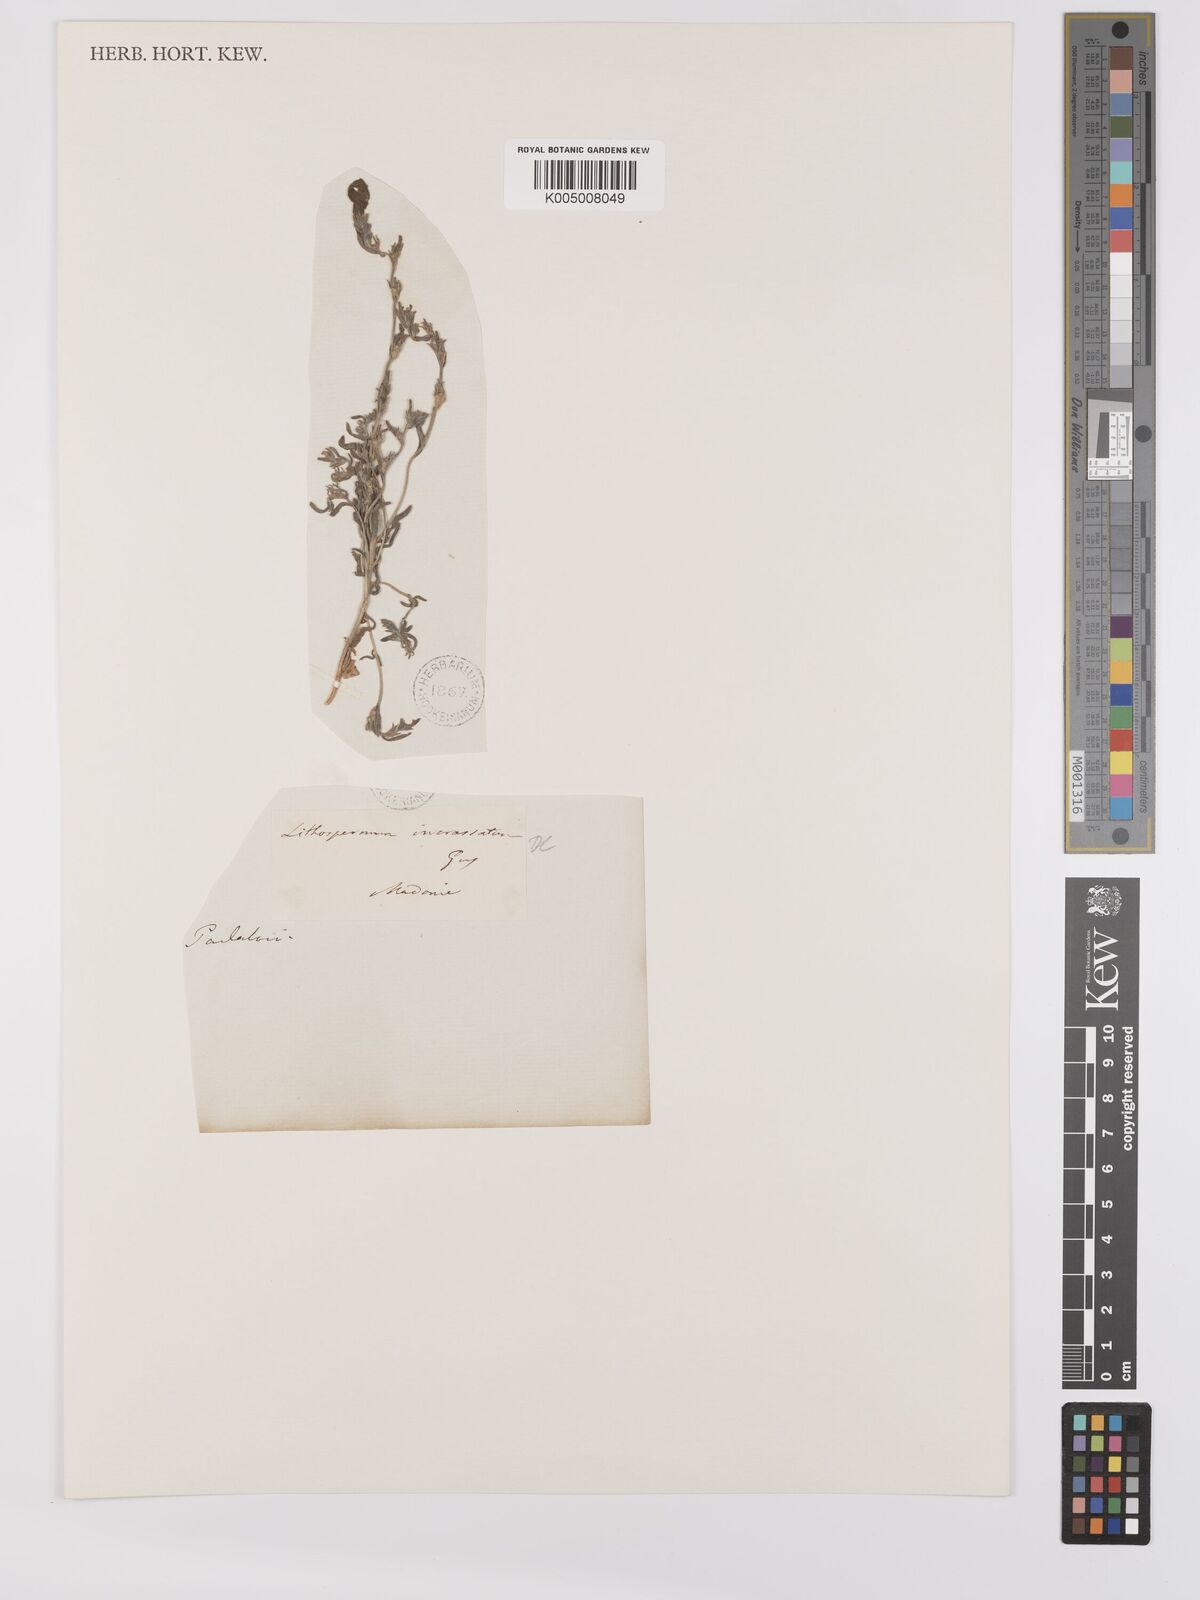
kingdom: Plantae
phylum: Tracheophyta
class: Magnoliopsida
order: Boraginales
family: Boraginaceae
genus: Buglossoides
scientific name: Buglossoides incrassata
